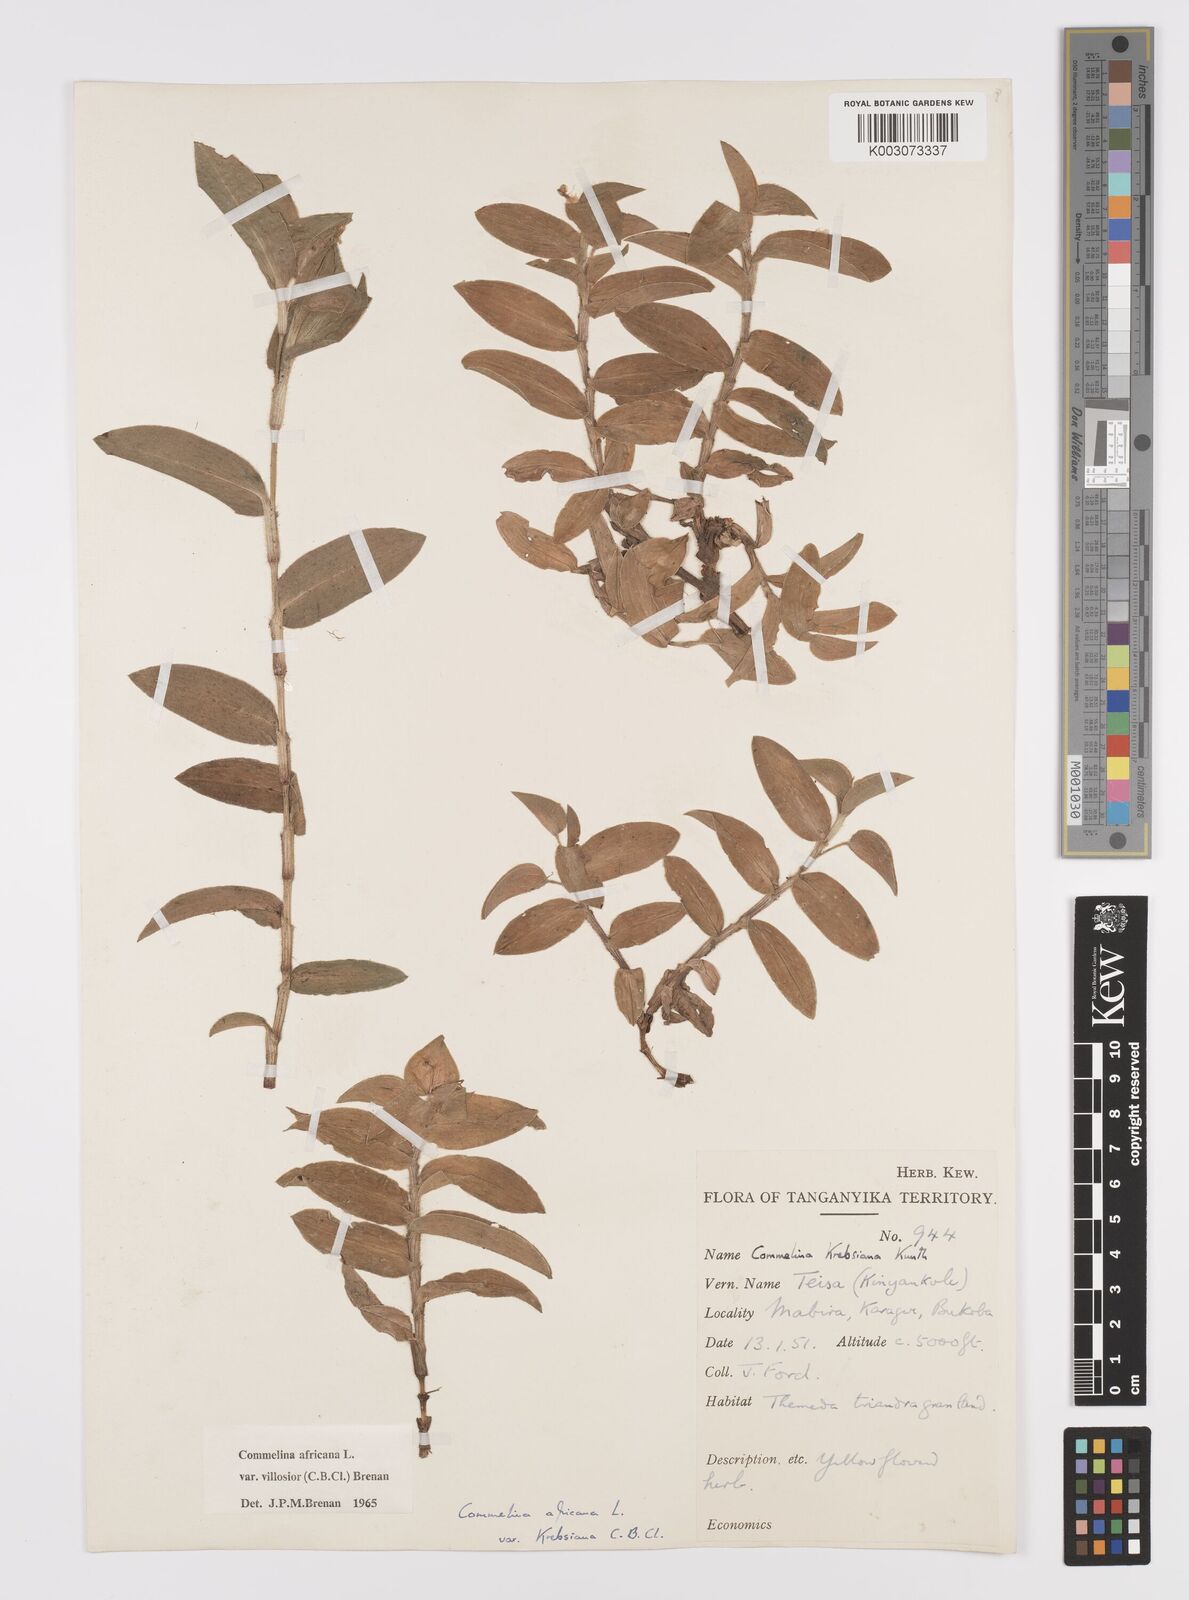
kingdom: Plantae
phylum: Tracheophyta
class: Liliopsida
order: Commelinales
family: Commelinaceae
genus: Commelina
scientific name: Commelina africana
